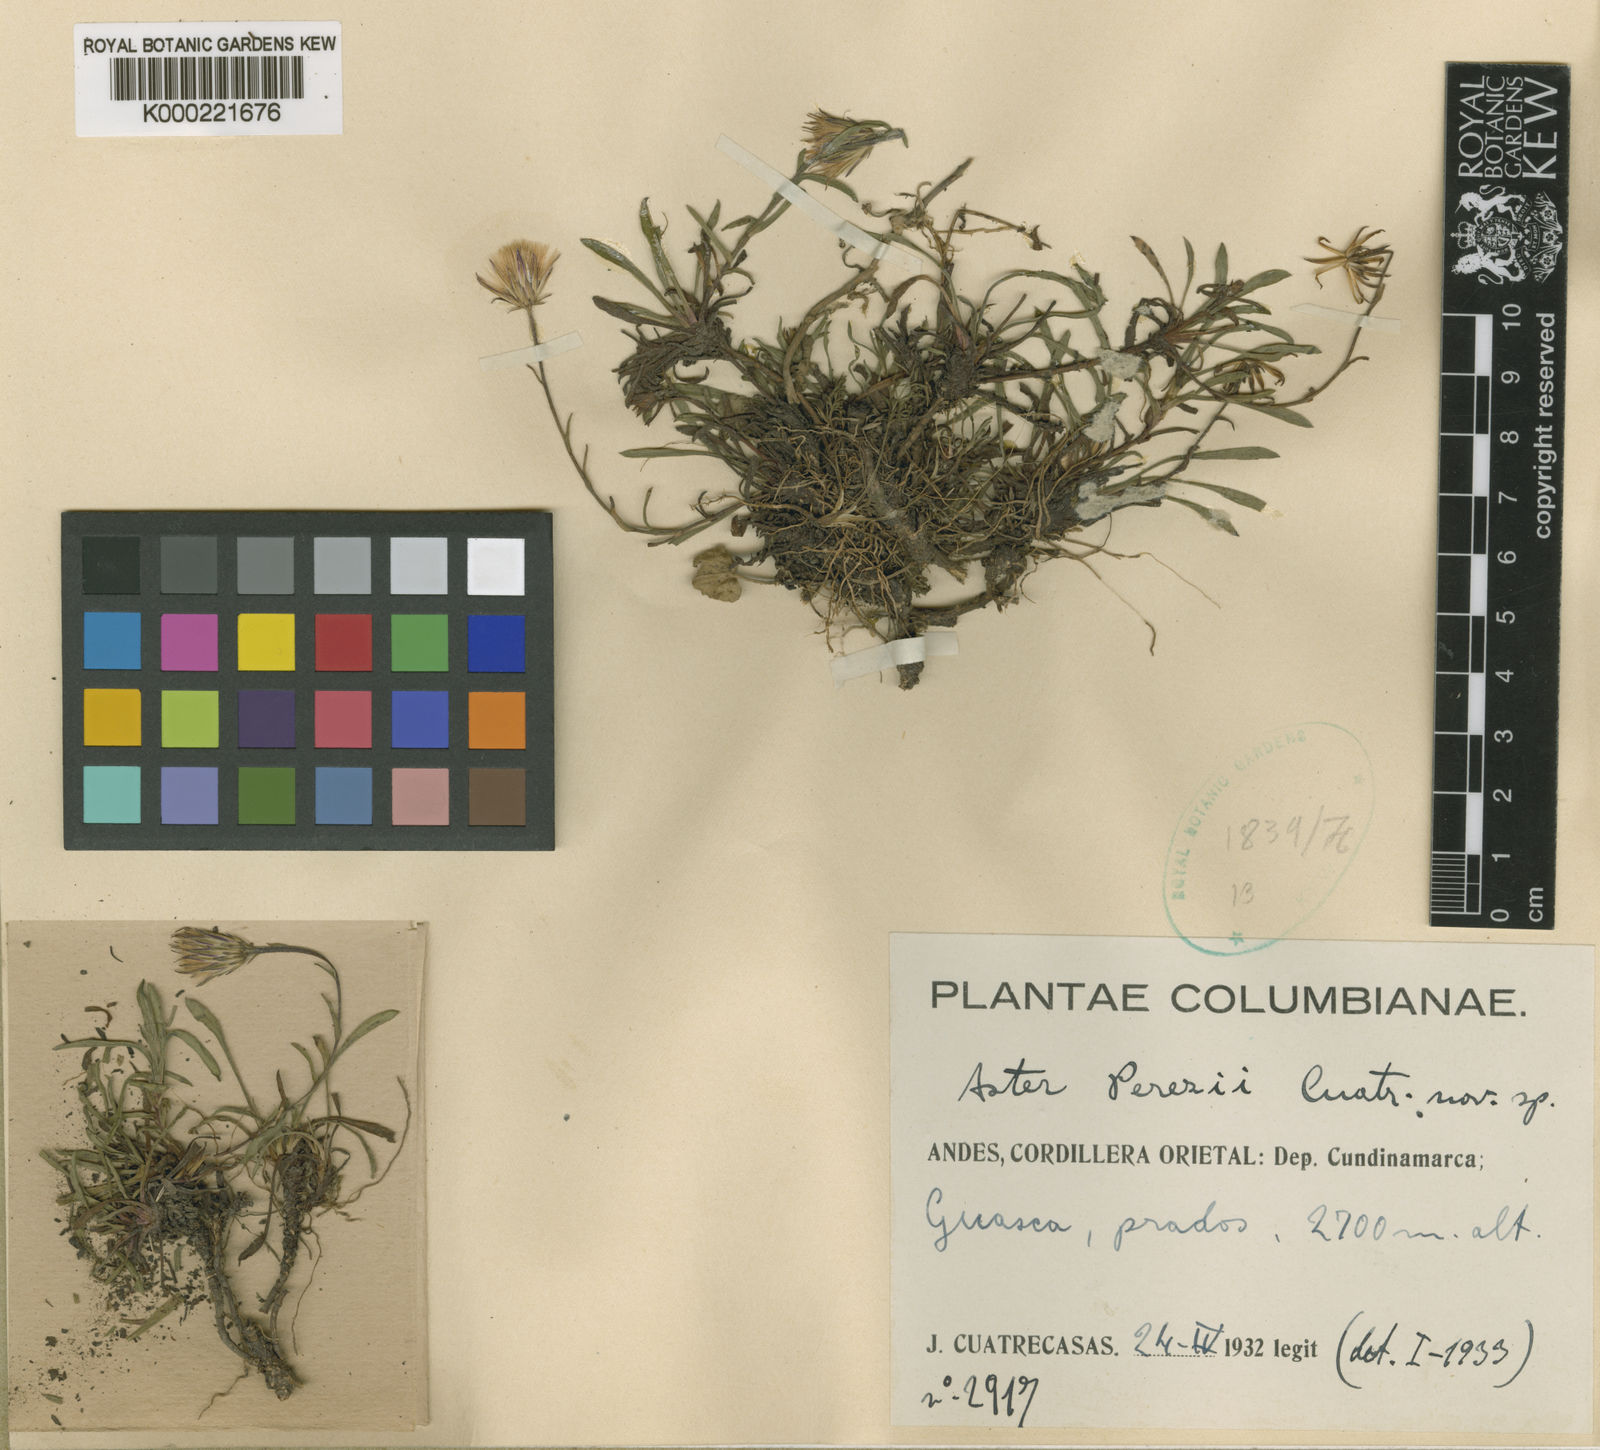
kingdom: Plantae
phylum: Tracheophyta
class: Magnoliopsida
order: Asterales
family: Asteraceae
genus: Noticastrum
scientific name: Noticastrum marginatum
